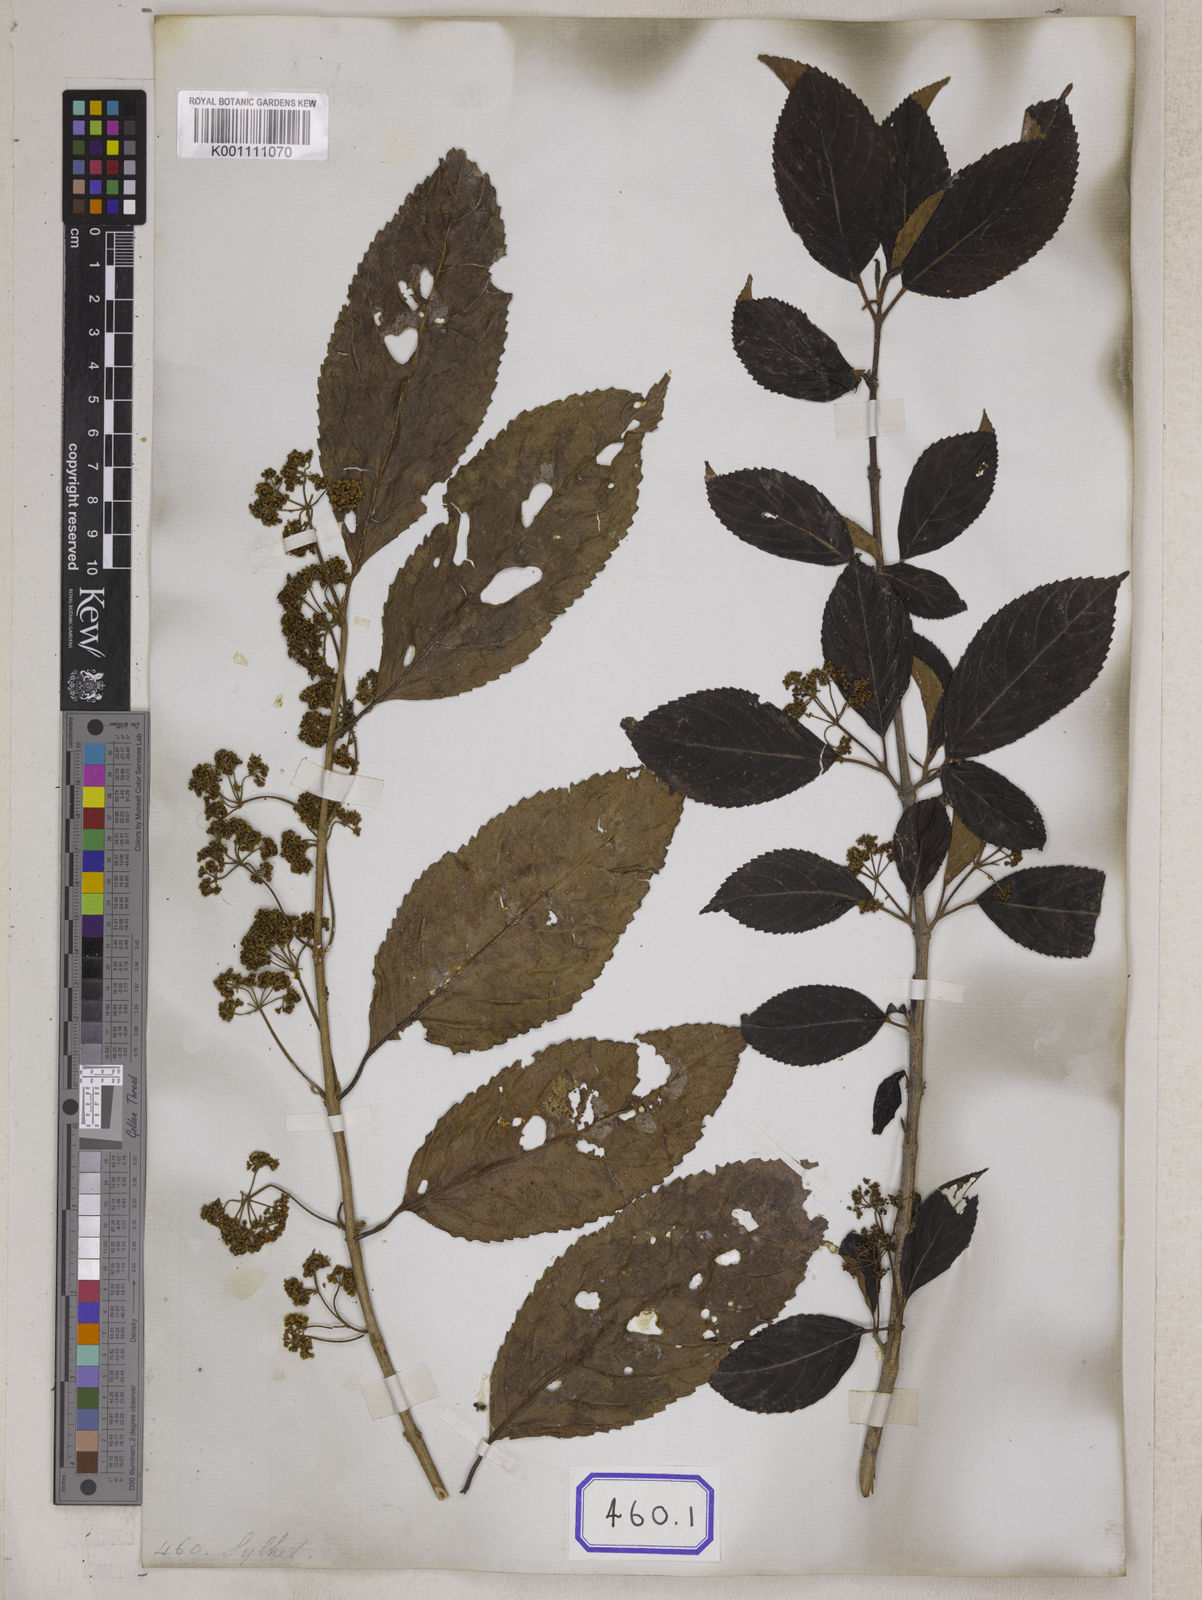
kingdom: Plantae
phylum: Tracheophyta
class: Magnoliopsida
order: Dipsacales
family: Viburnaceae
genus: Viburnum
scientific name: Viburnum
